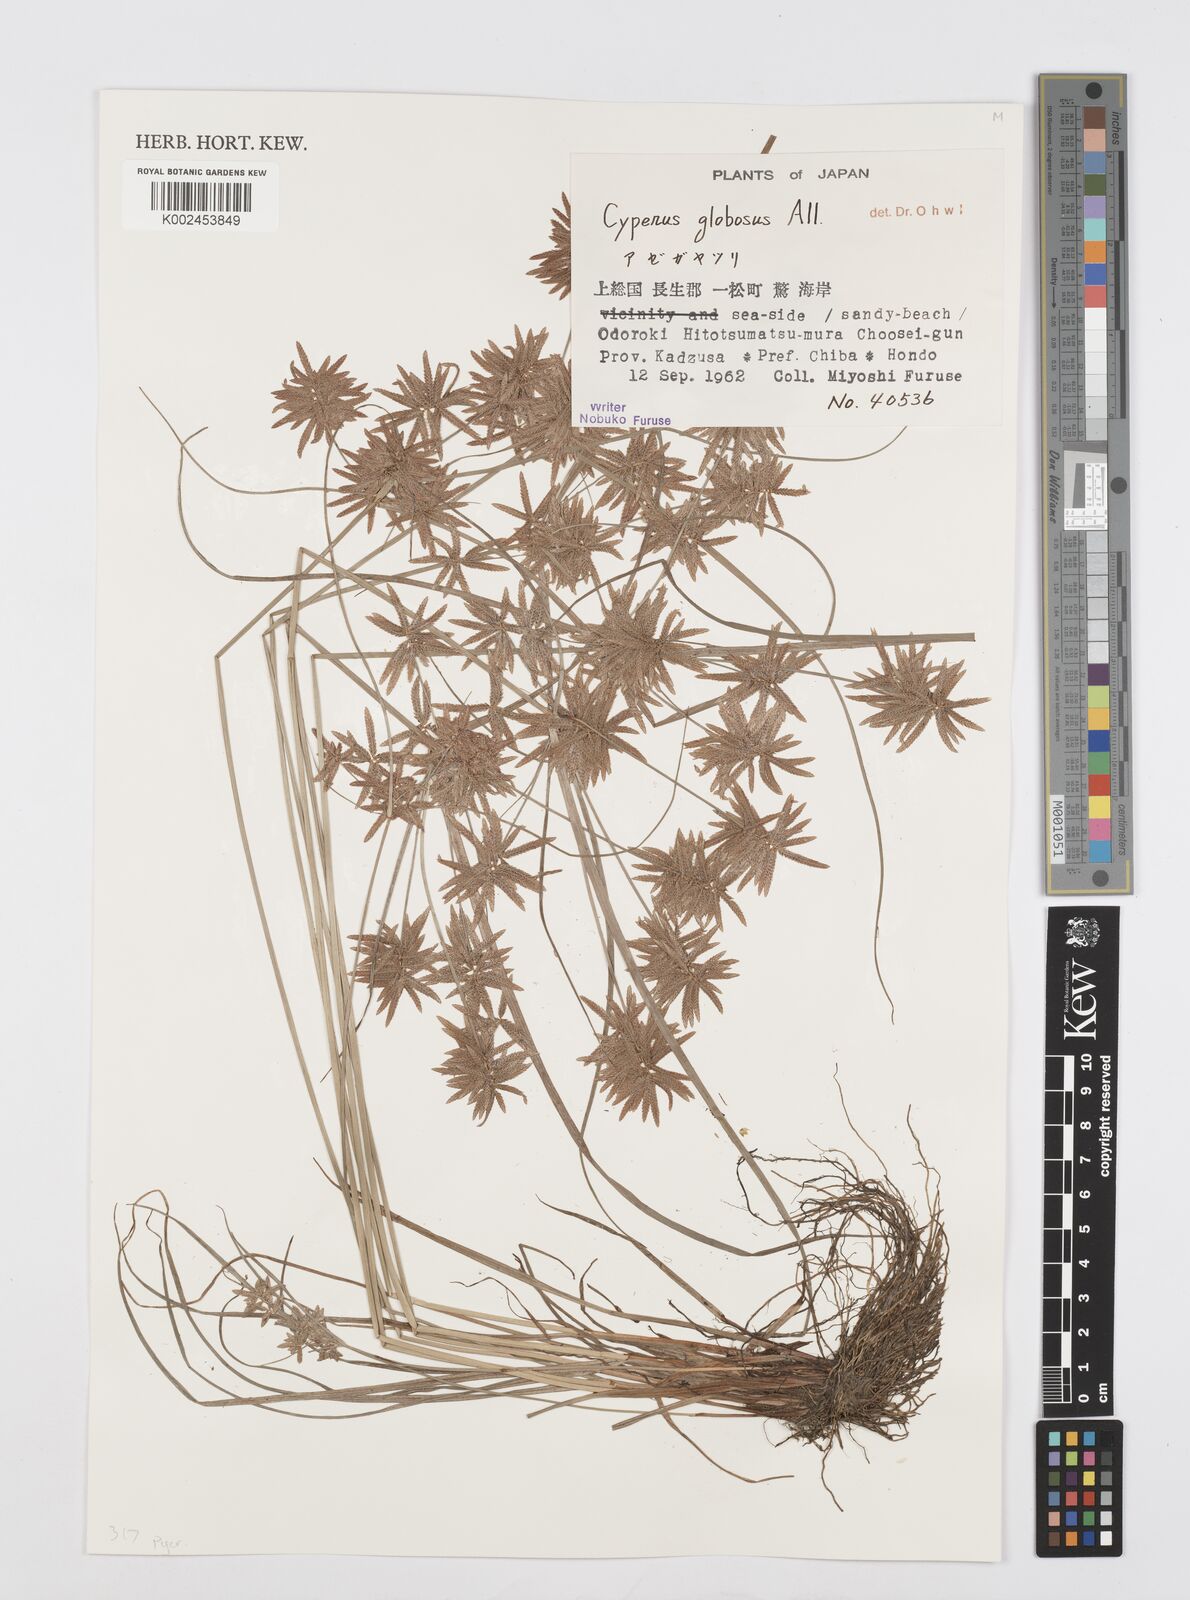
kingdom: Plantae
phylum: Tracheophyta
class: Liliopsida
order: Poales
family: Cyperaceae
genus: Cyperus
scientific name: Cyperus flavidus
